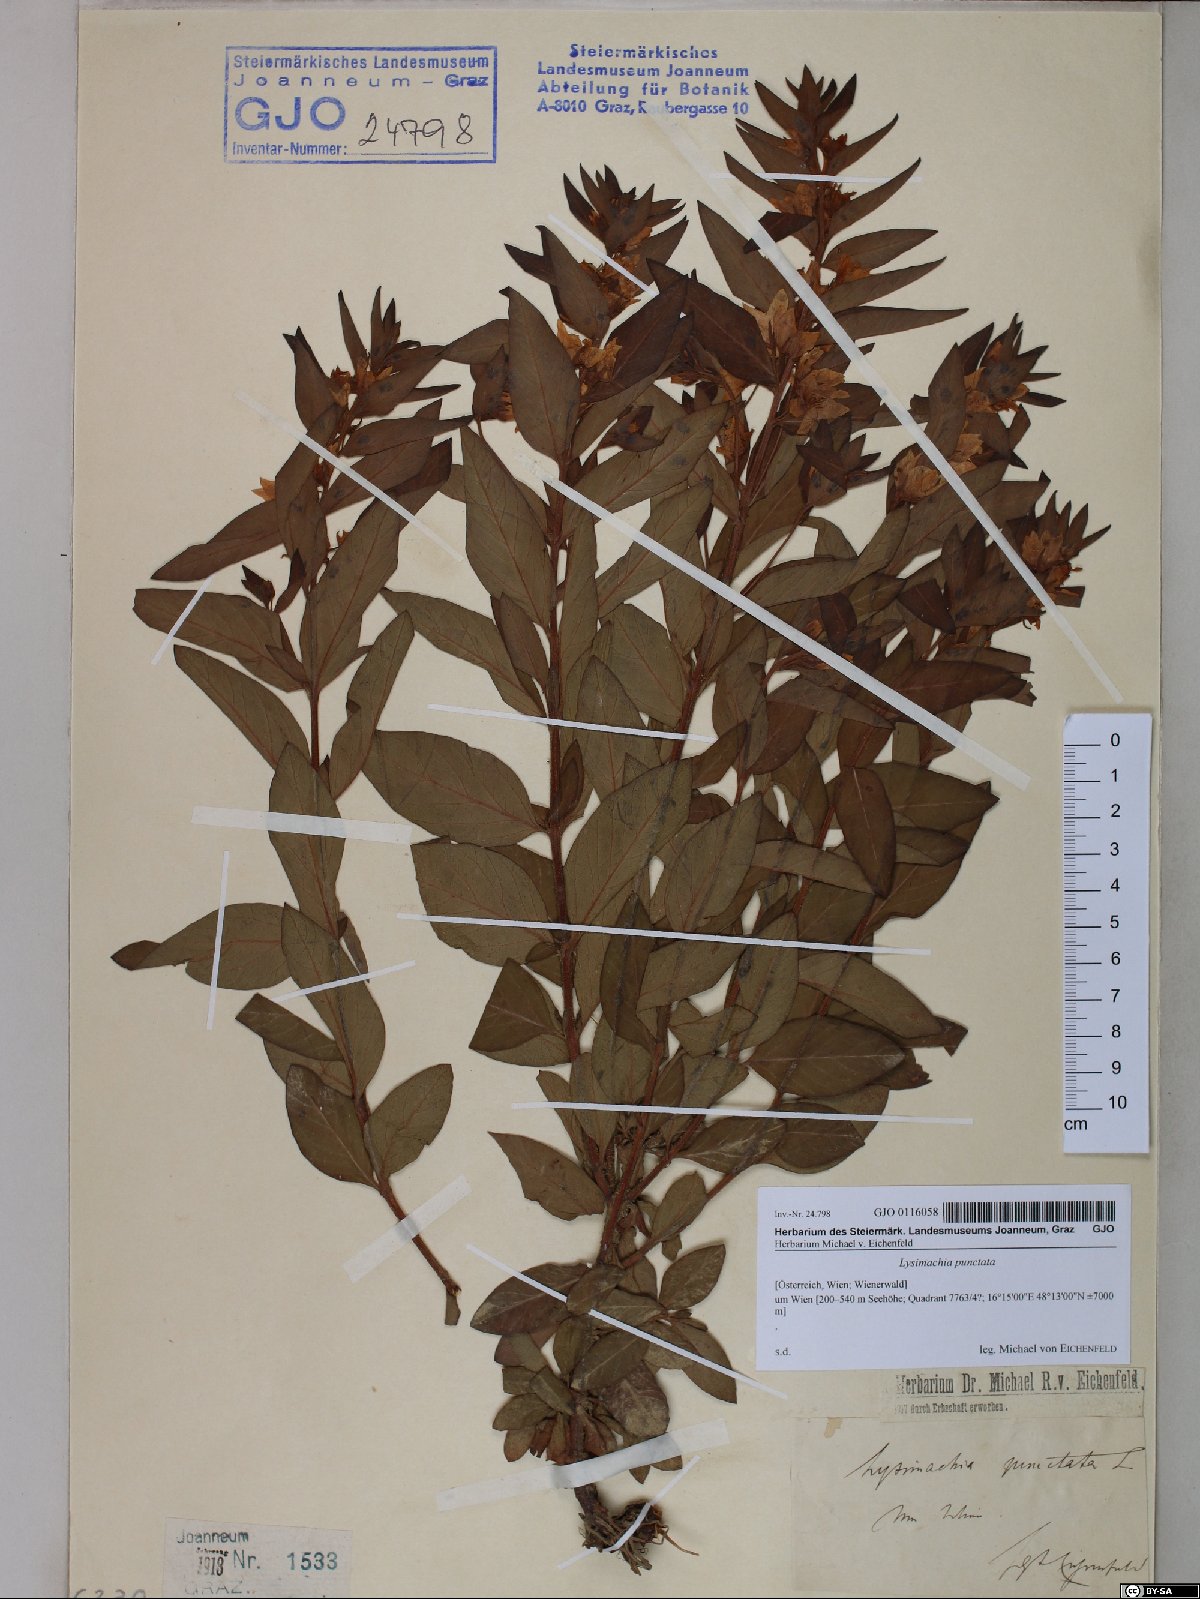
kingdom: Plantae
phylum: Tracheophyta
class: Magnoliopsida
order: Ericales
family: Primulaceae
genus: Lysimachia
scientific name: Lysimachia punctata
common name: Dotted loosestrife
